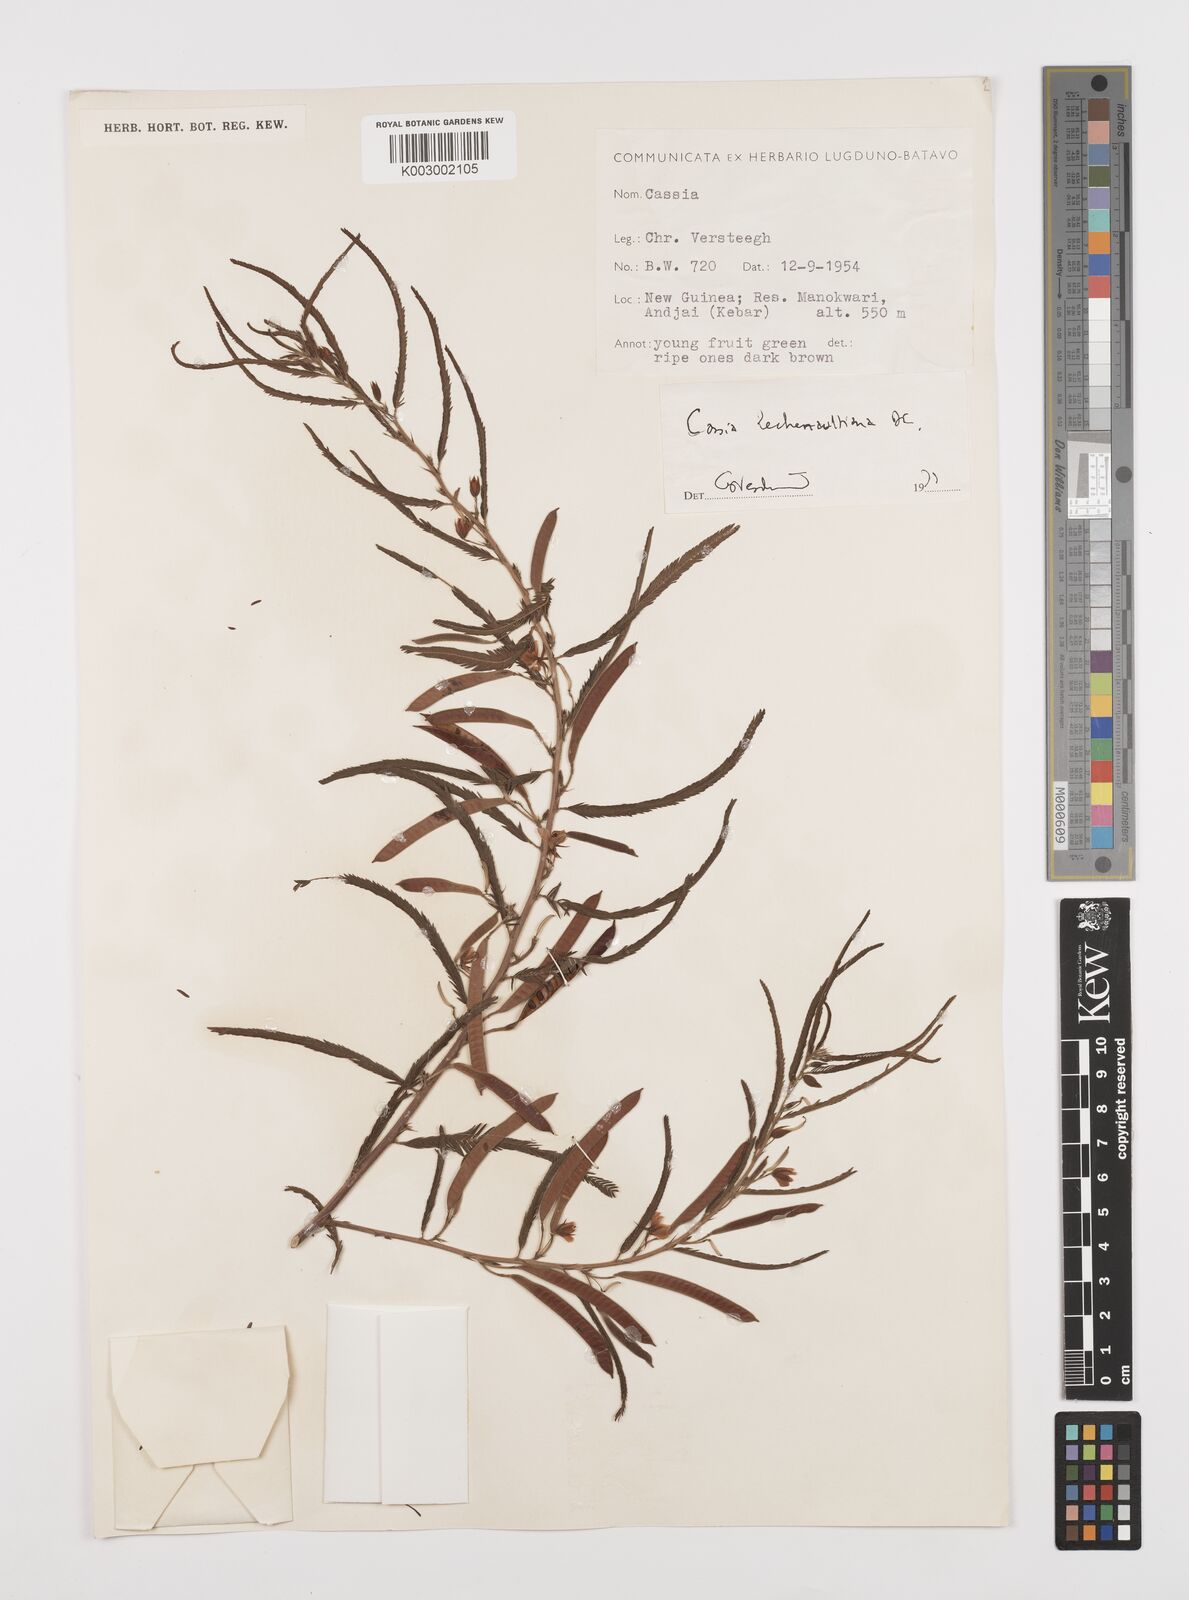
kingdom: Plantae
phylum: Tracheophyta
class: Magnoliopsida
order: Fabales
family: Fabaceae
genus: Chamaecrista
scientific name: Chamaecrista mimosoides
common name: Fish-bone cassia
